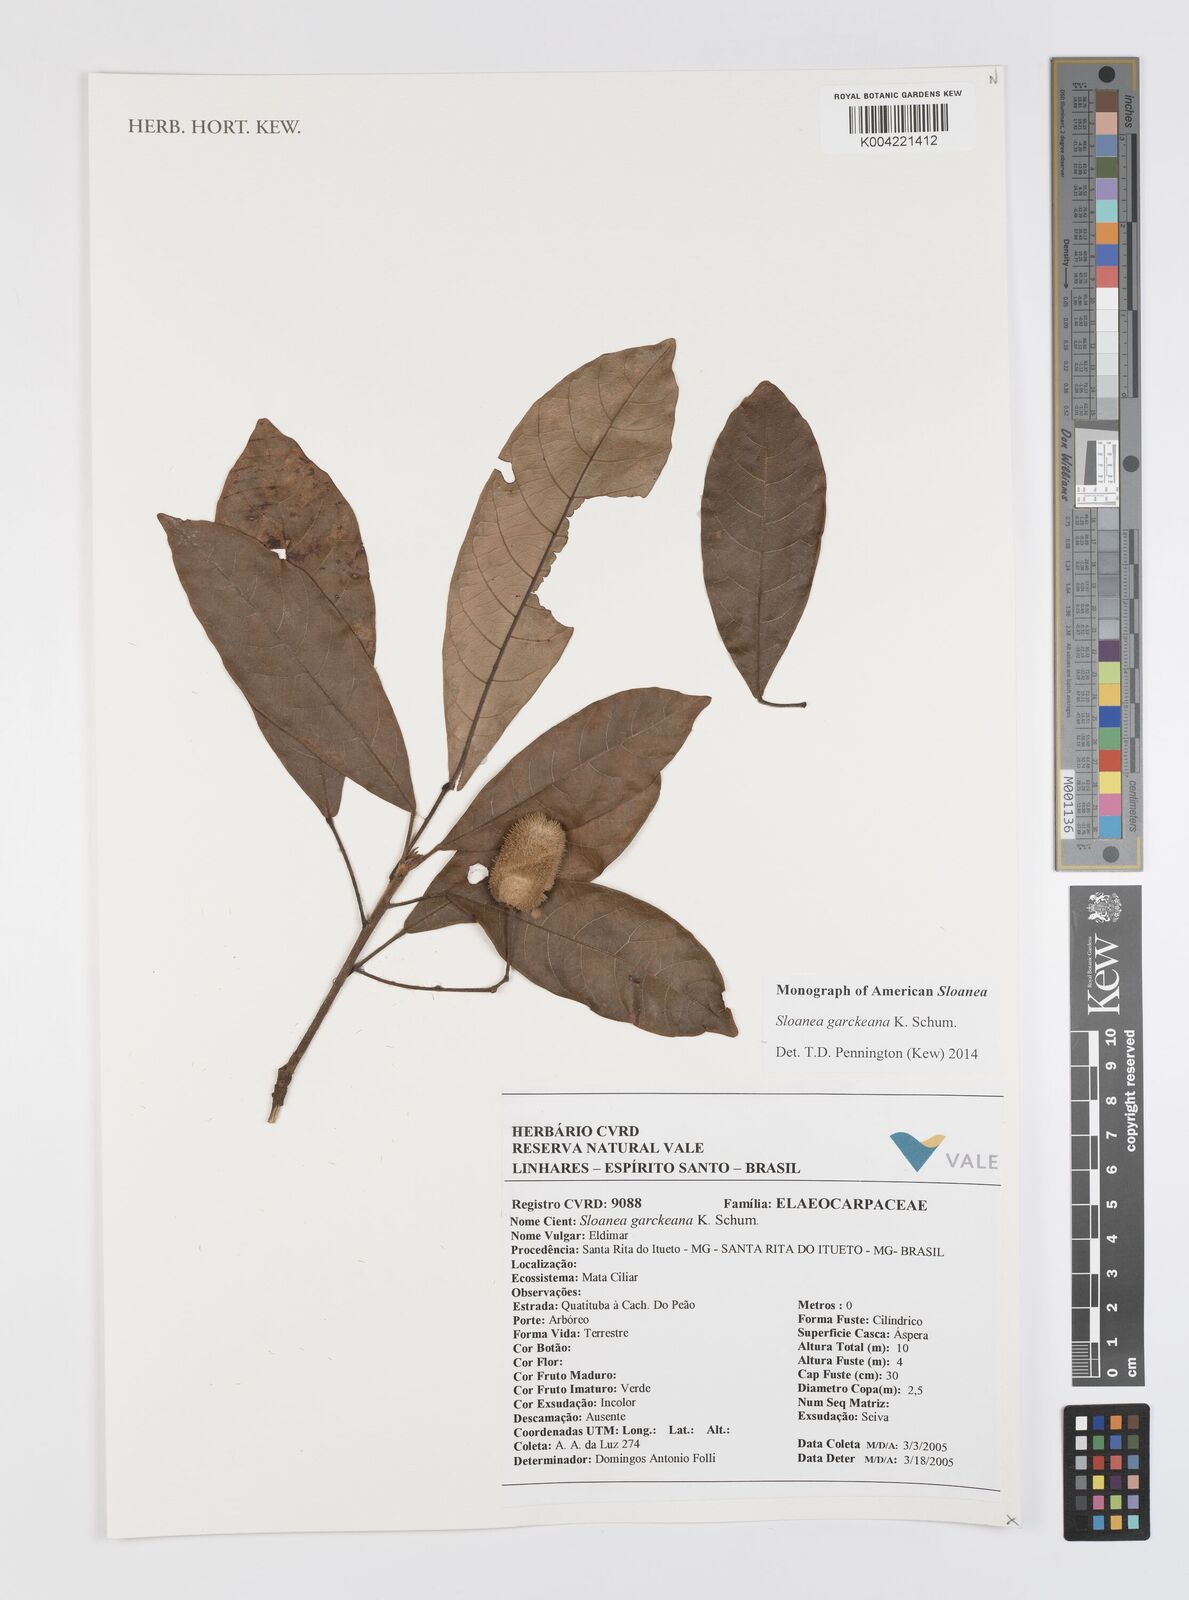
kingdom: Plantae
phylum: Tracheophyta
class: Magnoliopsida
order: Oxalidales
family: Elaeocarpaceae
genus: Sloanea
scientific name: Sloanea garckeana
